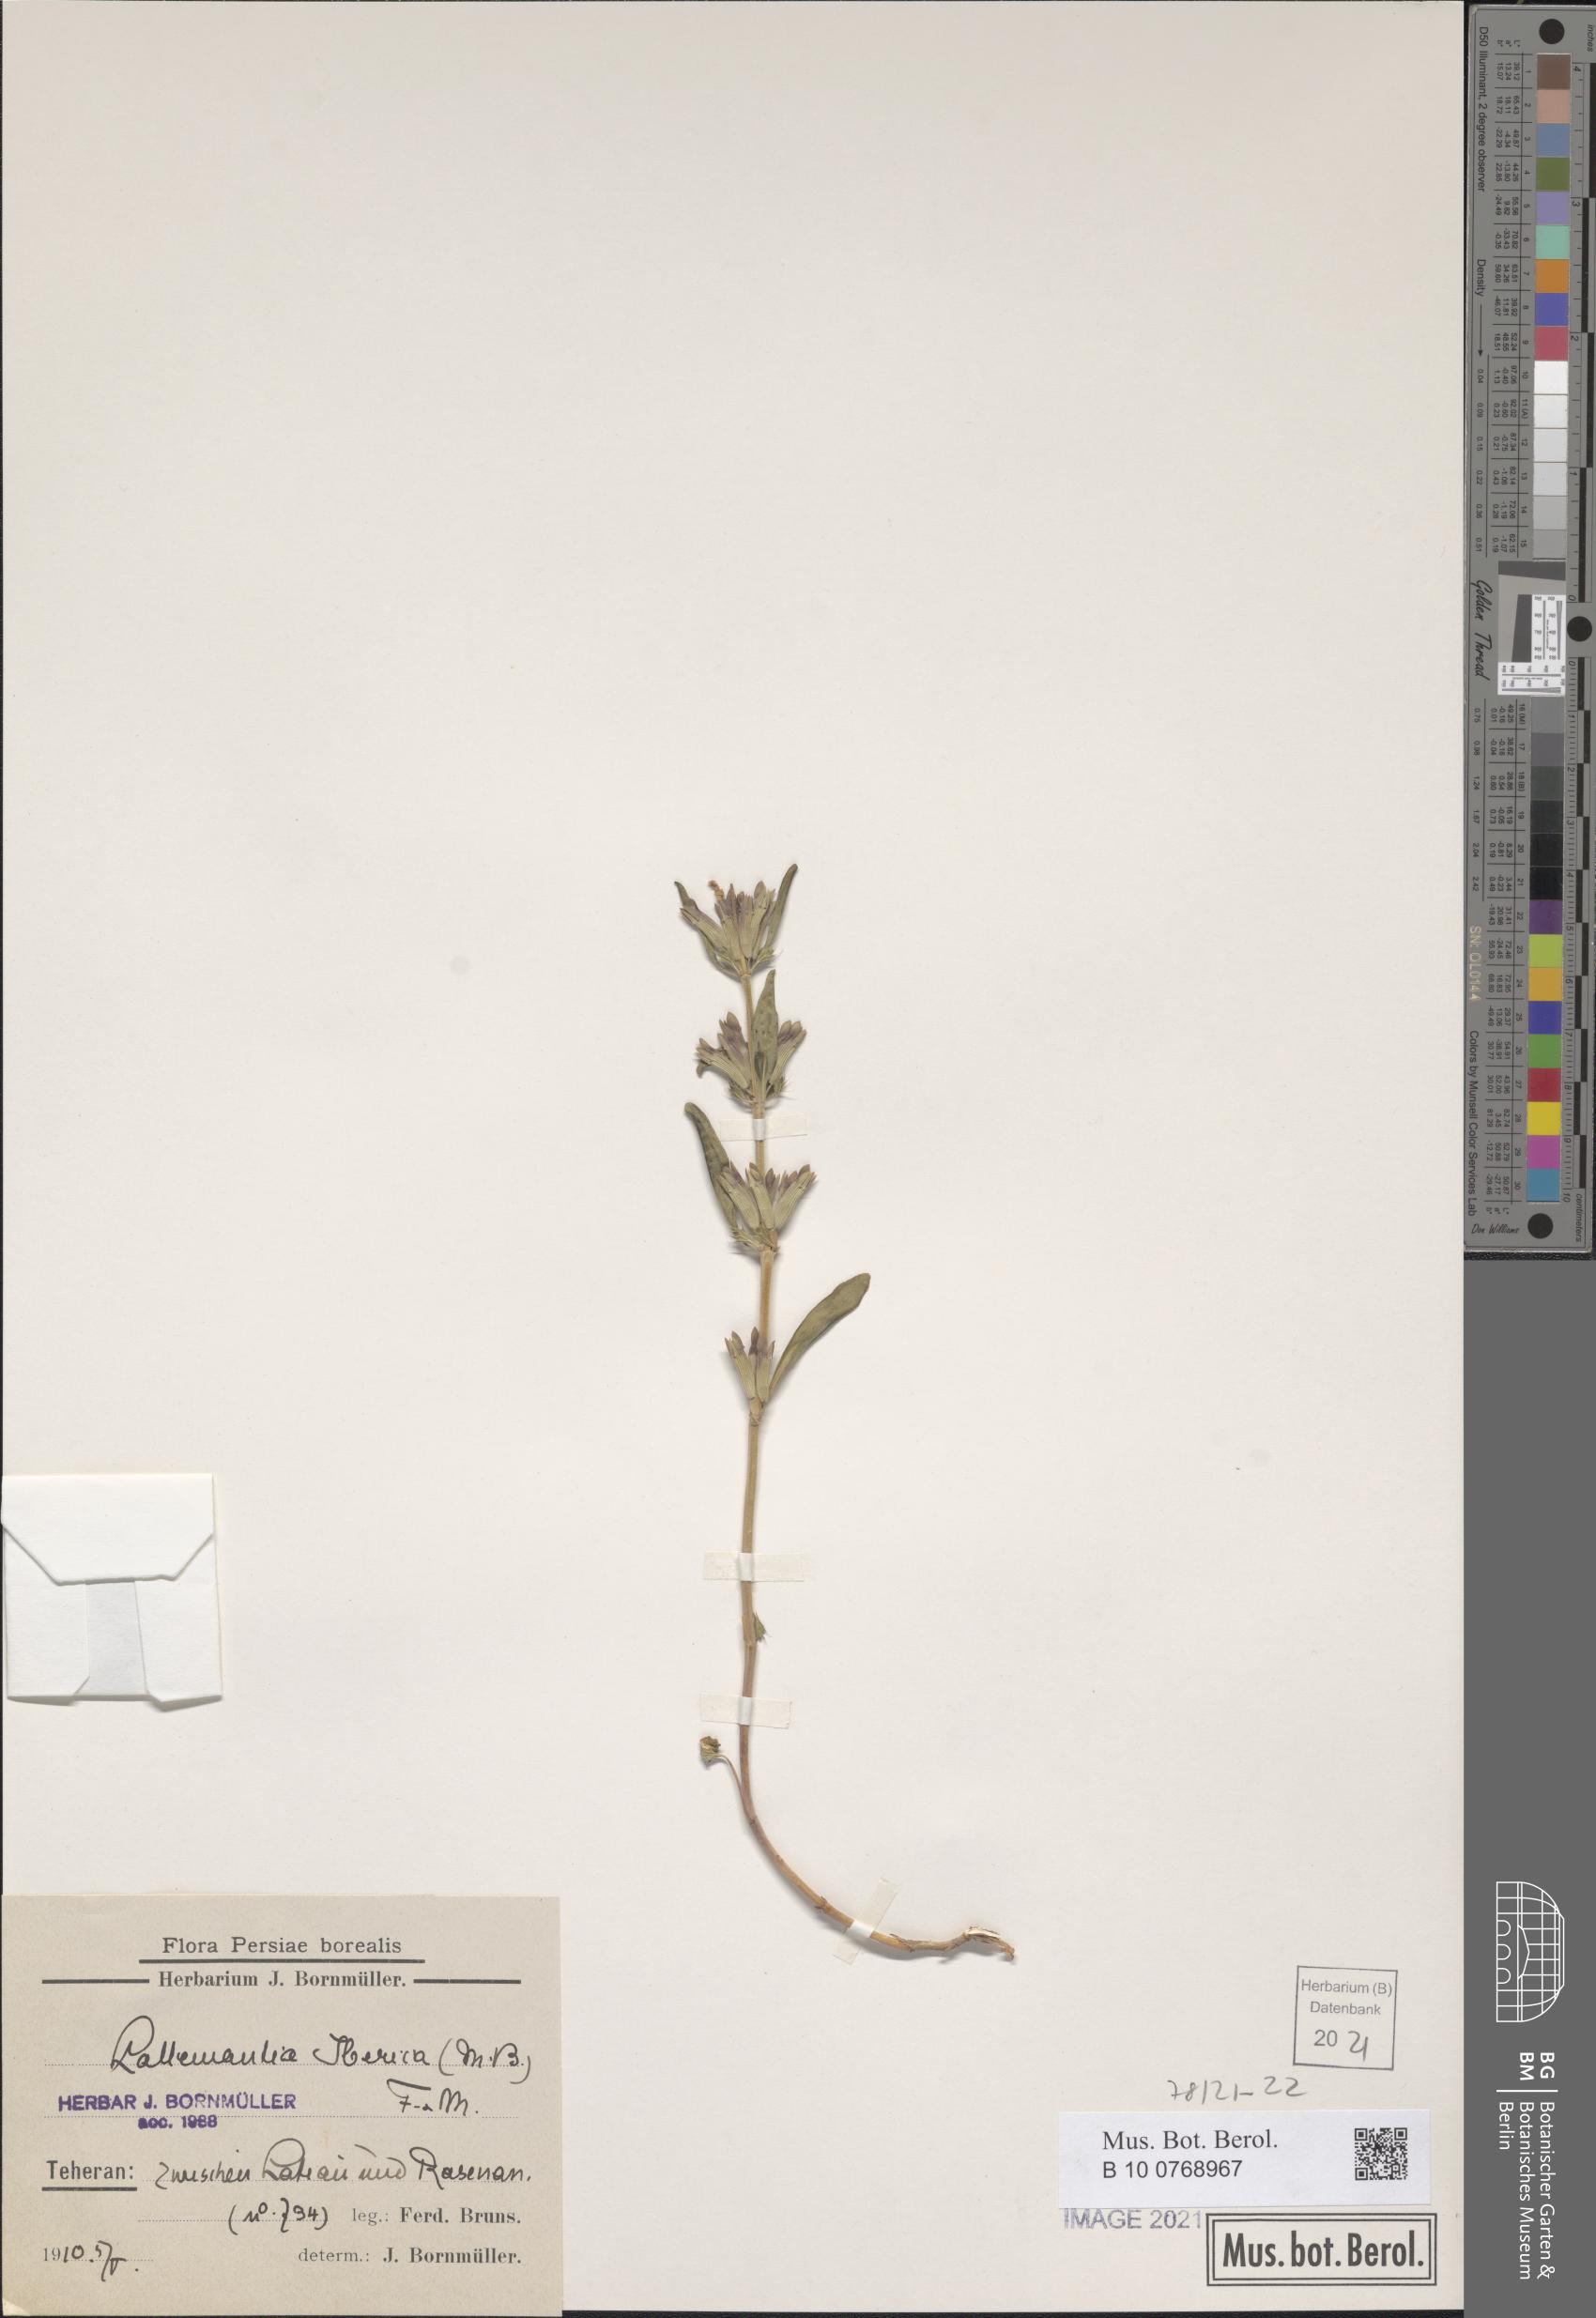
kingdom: Plantae
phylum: Tracheophyta
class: Magnoliopsida
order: Lamiales
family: Lamiaceae
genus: Lallemantia
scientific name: Lallemantia iberica
